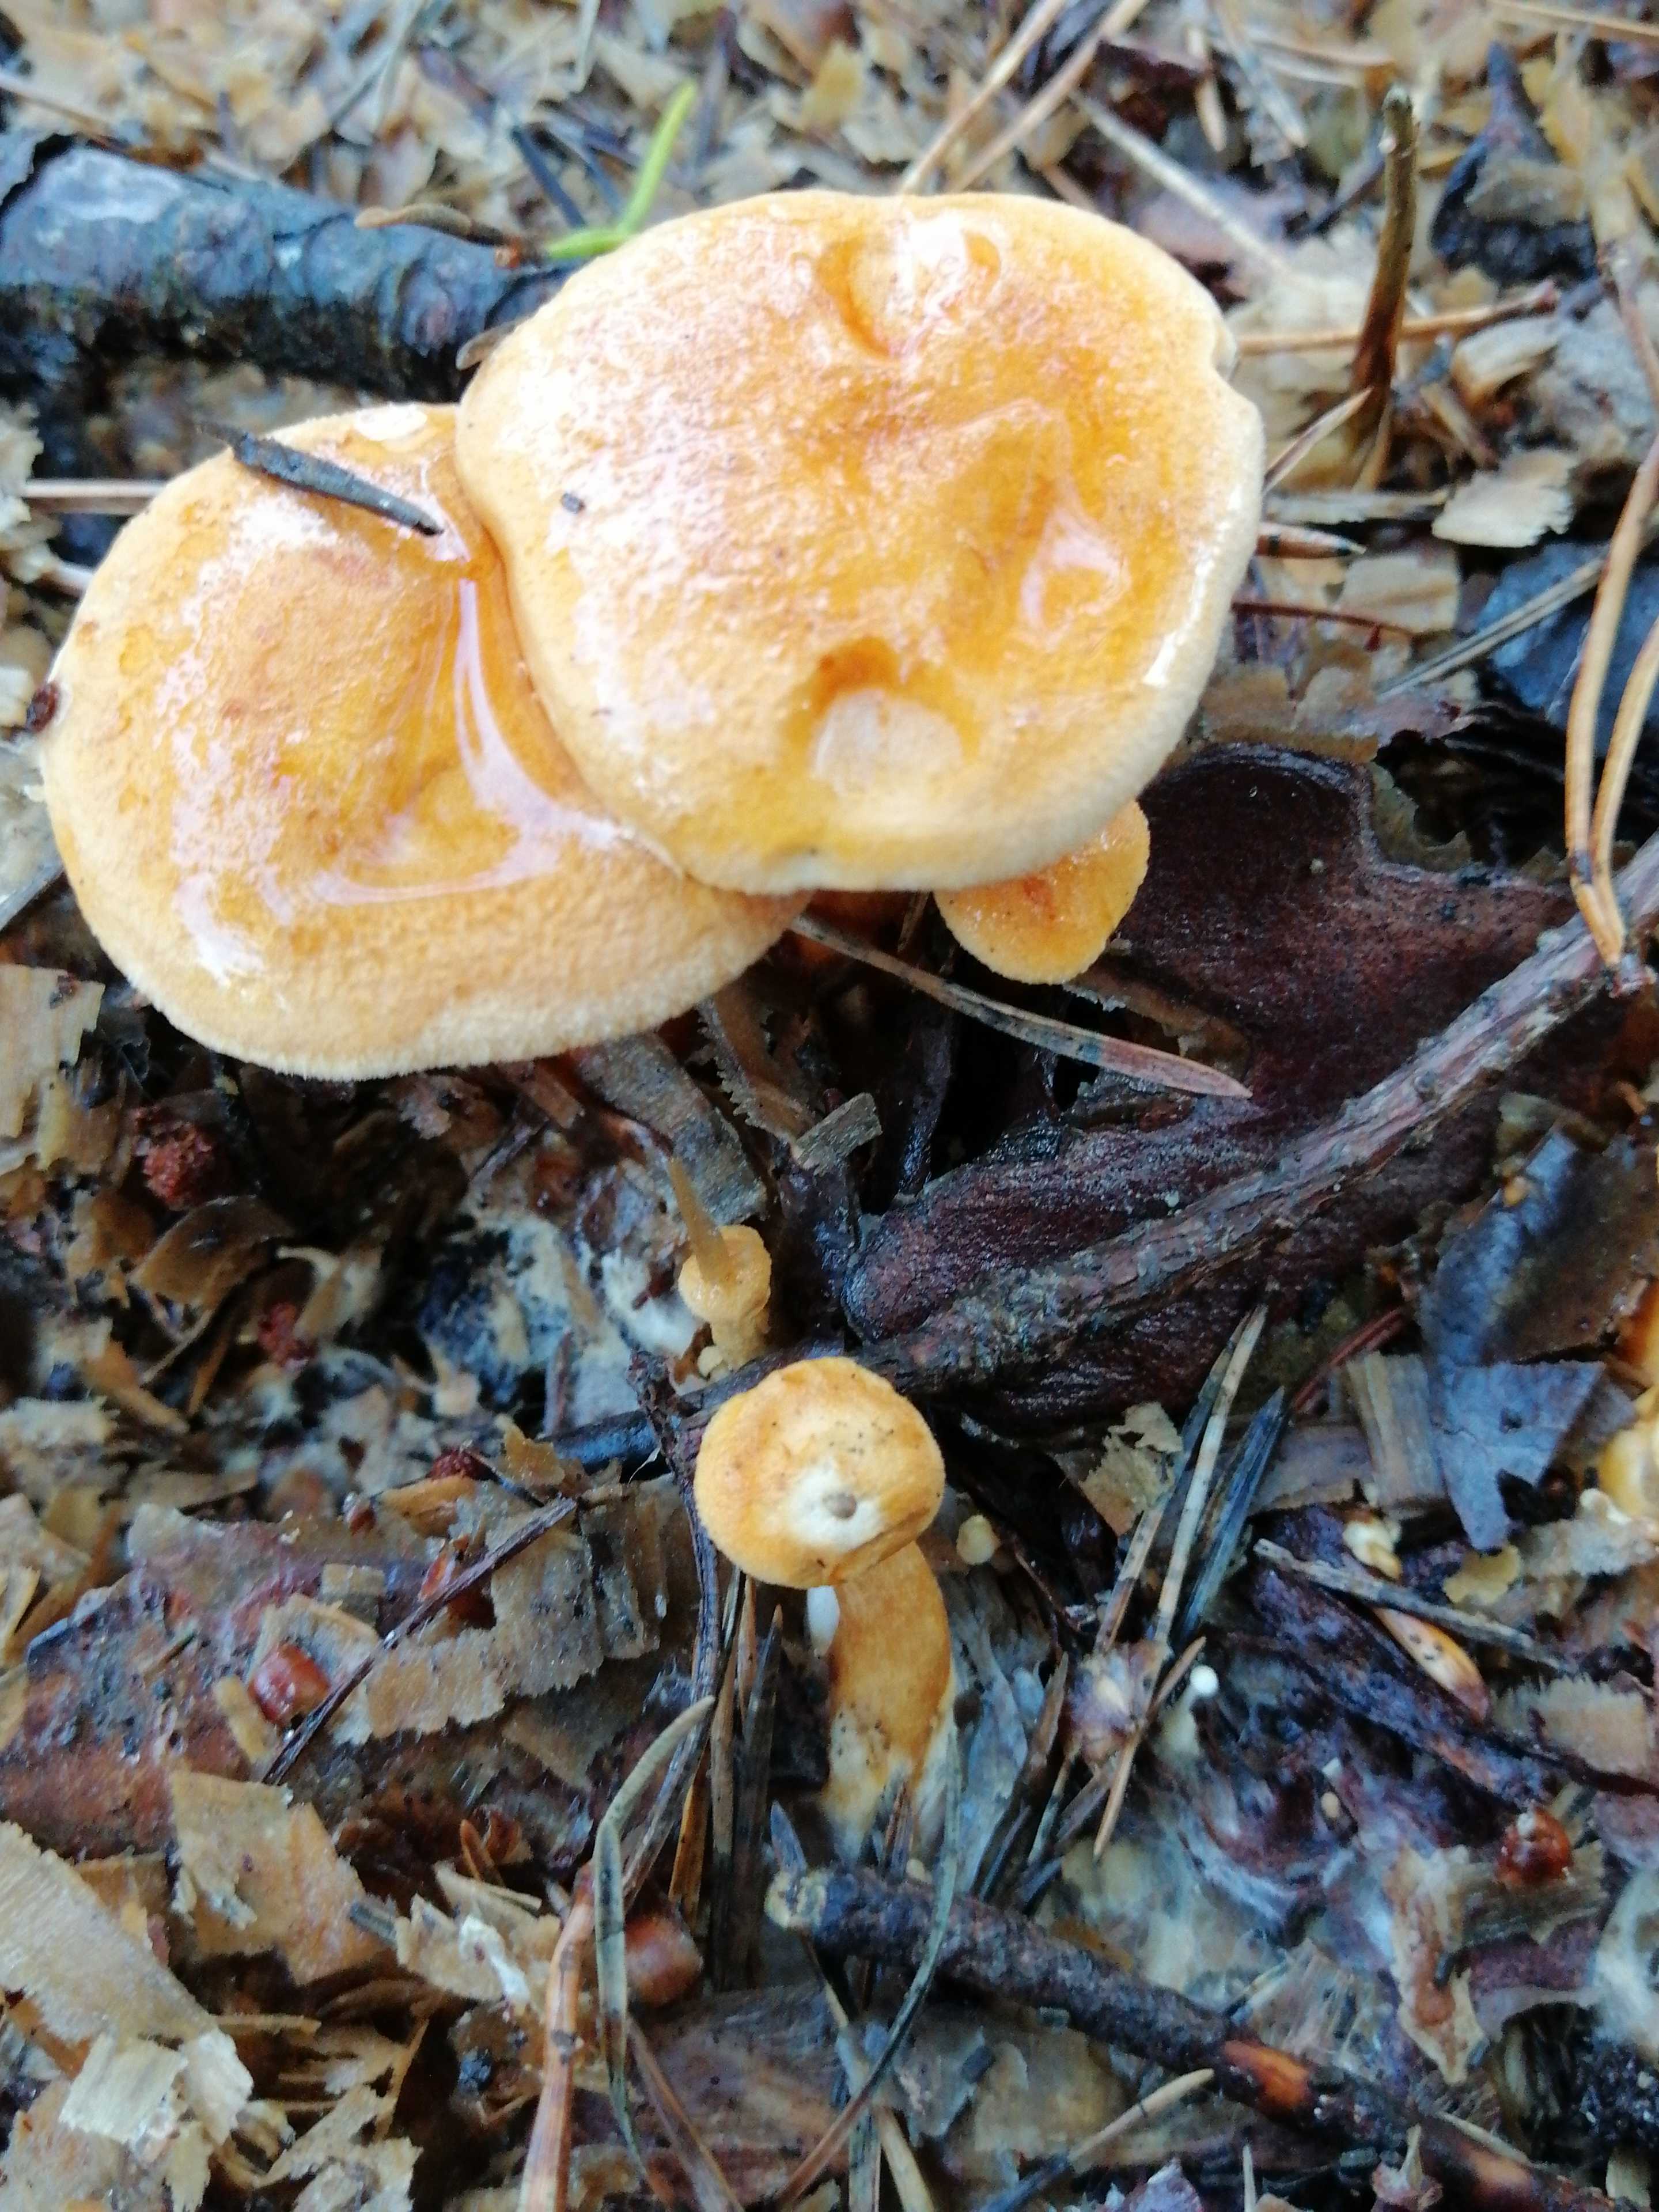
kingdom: Fungi
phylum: Basidiomycota
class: Agaricomycetes
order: Boletales
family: Hygrophoropsidaceae
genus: Hygrophoropsis
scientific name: Hygrophoropsis aurantiaca
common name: almindelig orangekantarel
